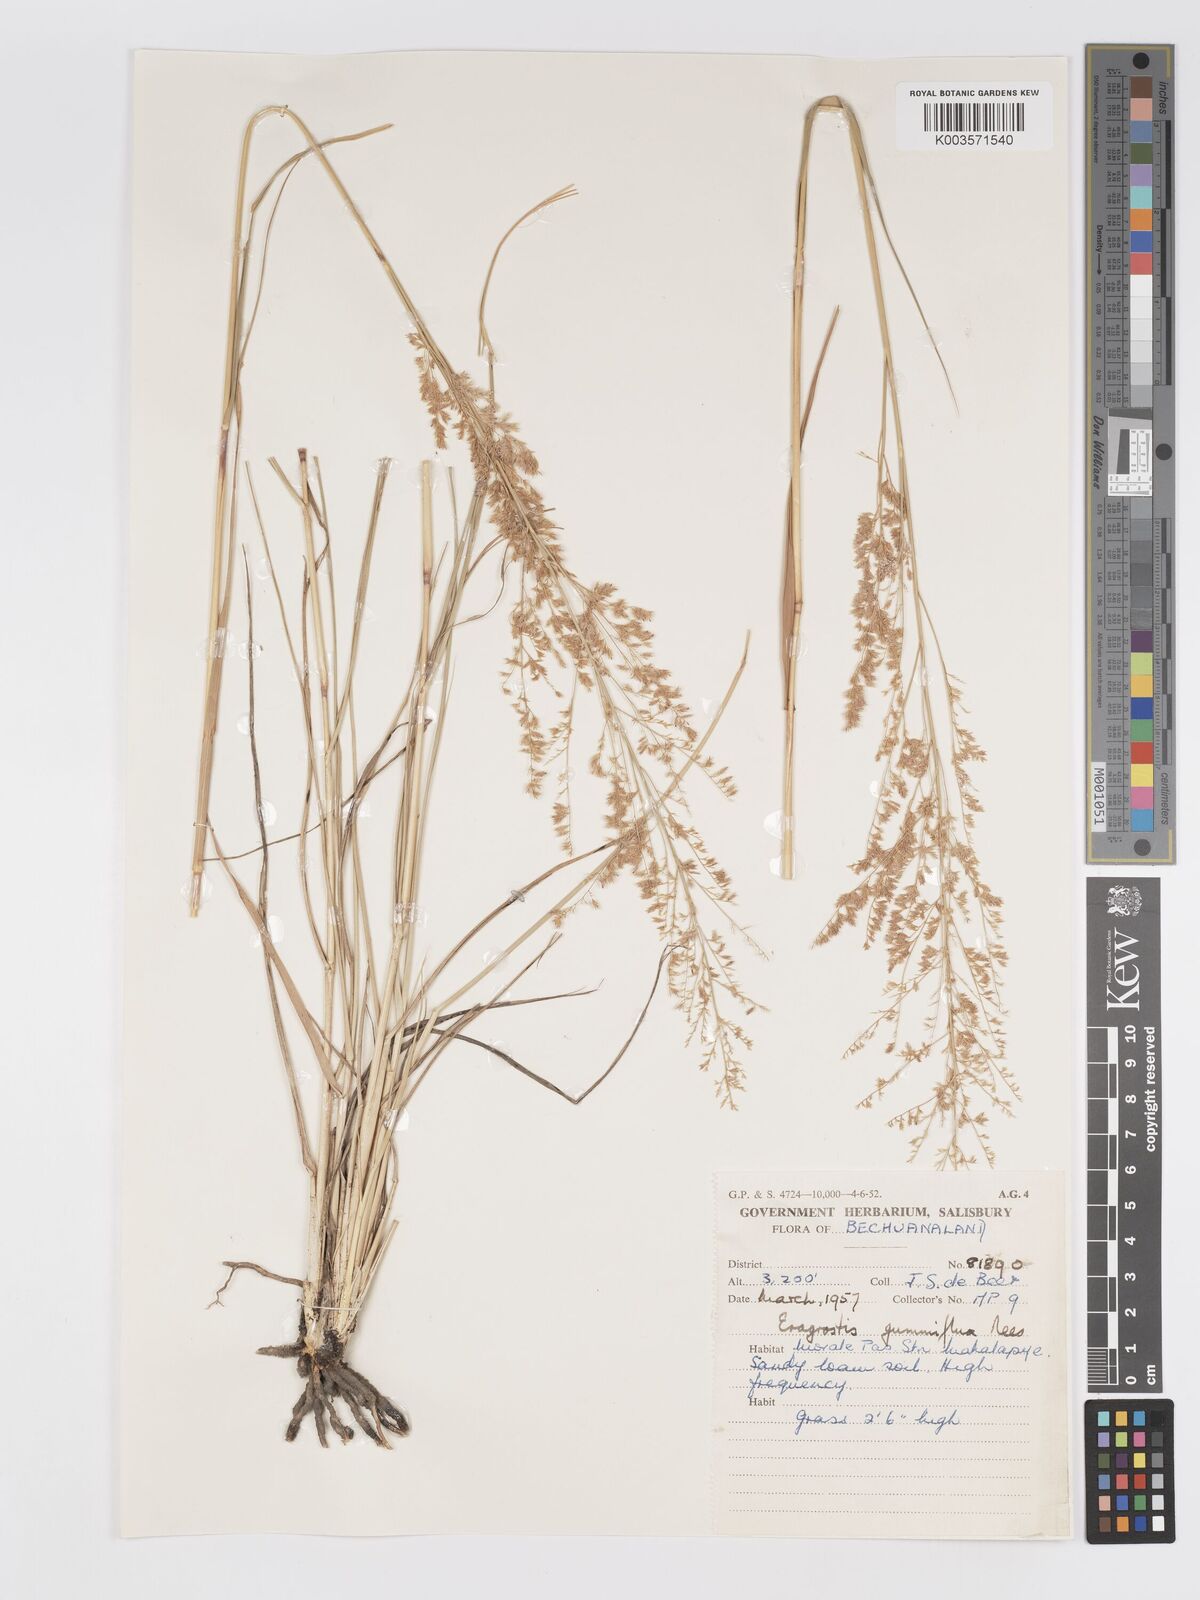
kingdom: Plantae
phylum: Tracheophyta
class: Liliopsida
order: Poales
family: Poaceae
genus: Eragrostis
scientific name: Eragrostis gummiflua
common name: Gum grass
